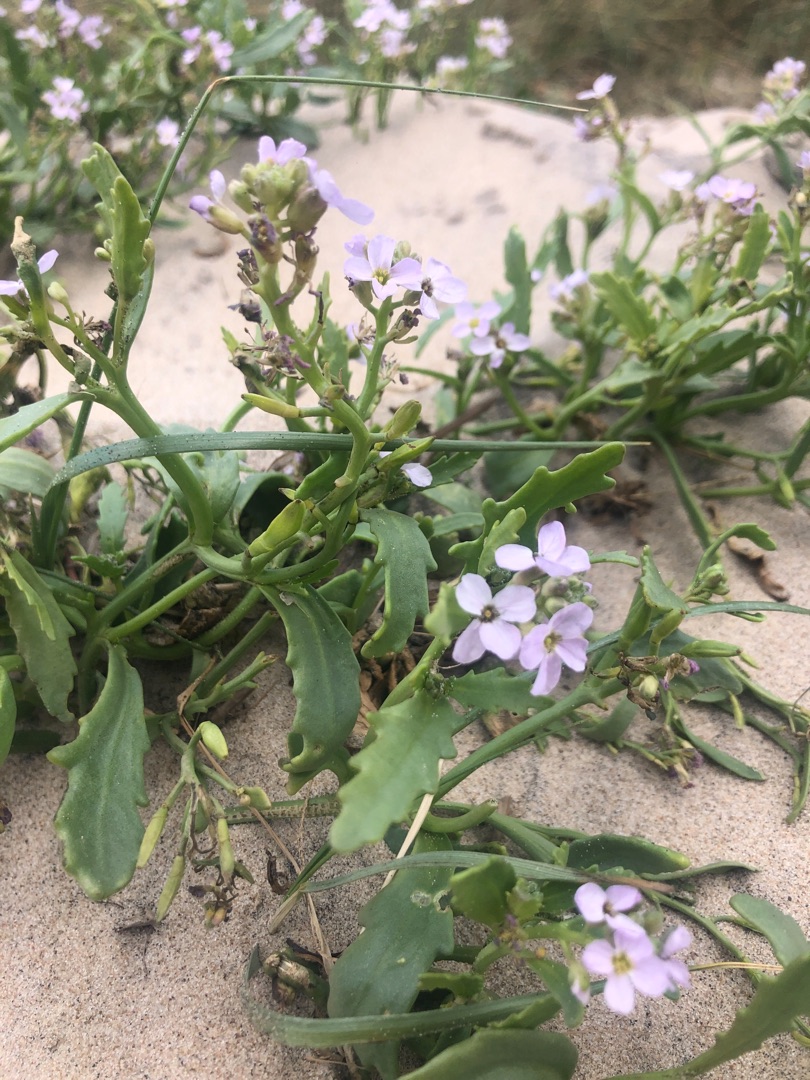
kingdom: Plantae
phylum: Tracheophyta
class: Magnoliopsida
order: Brassicales
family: Brassicaceae
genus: Cakile
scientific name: Cakile maritima
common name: Strandsennep
